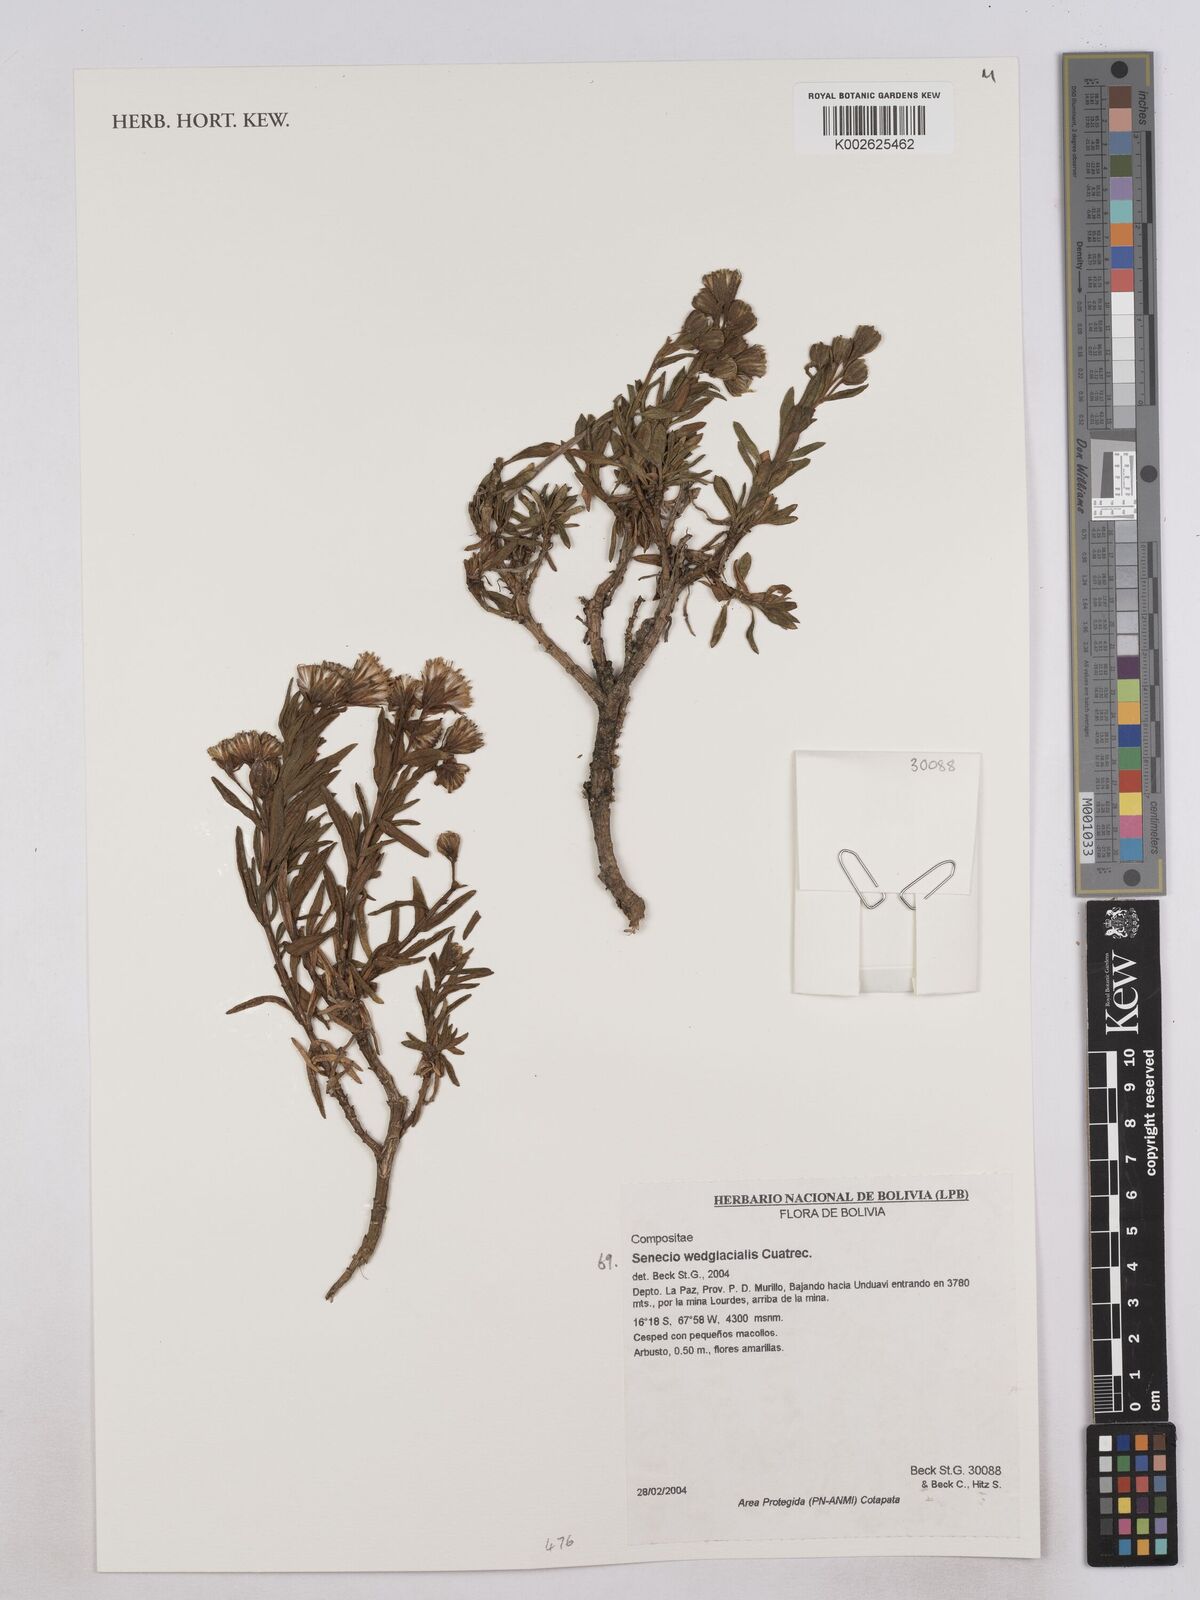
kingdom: Plantae
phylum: Tracheophyta
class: Magnoliopsida
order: Asterales
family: Asteraceae
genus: Senecio
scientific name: Senecio wedglacialis
